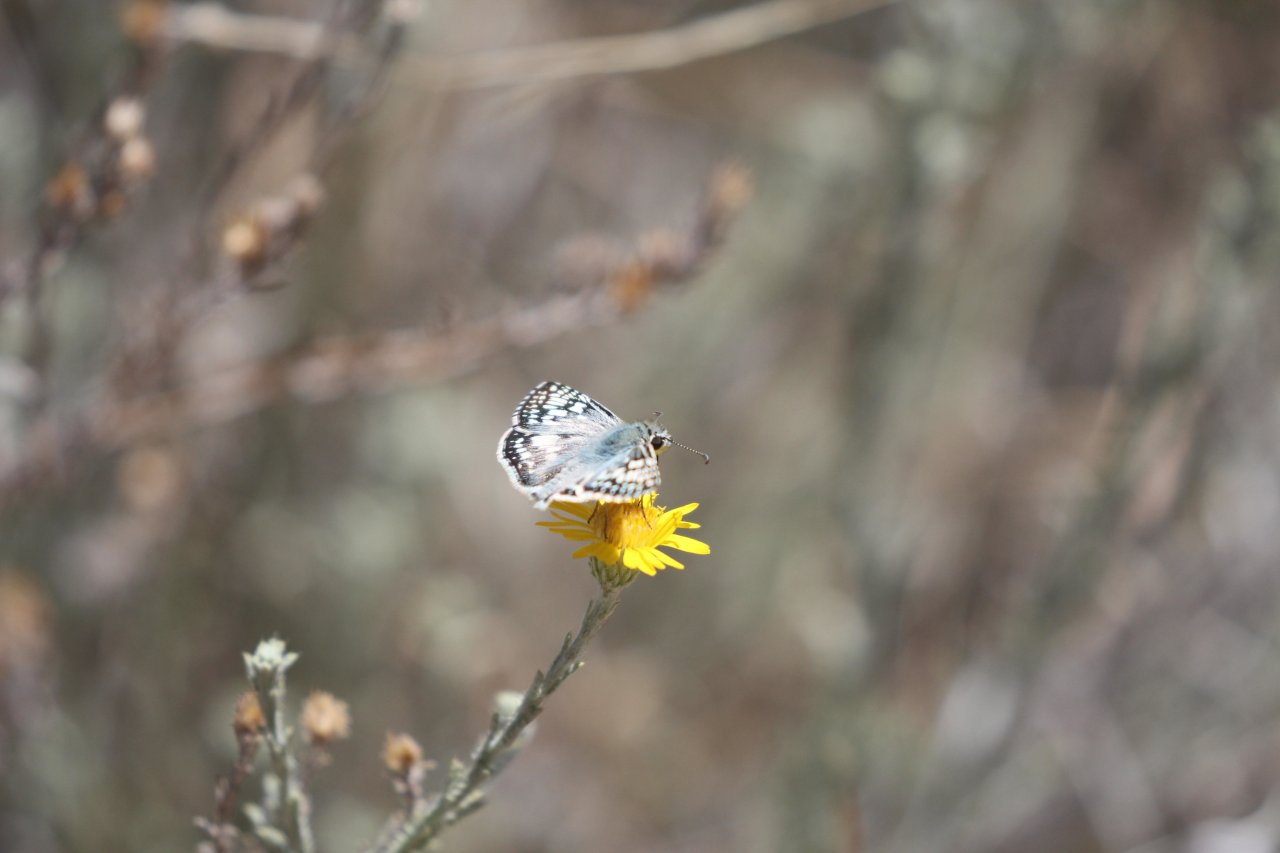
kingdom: Animalia
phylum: Arthropoda
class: Insecta
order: Lepidoptera
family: Hesperiidae
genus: Pyrgus
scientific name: Pyrgus communis
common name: Common Checkered-Skipper
